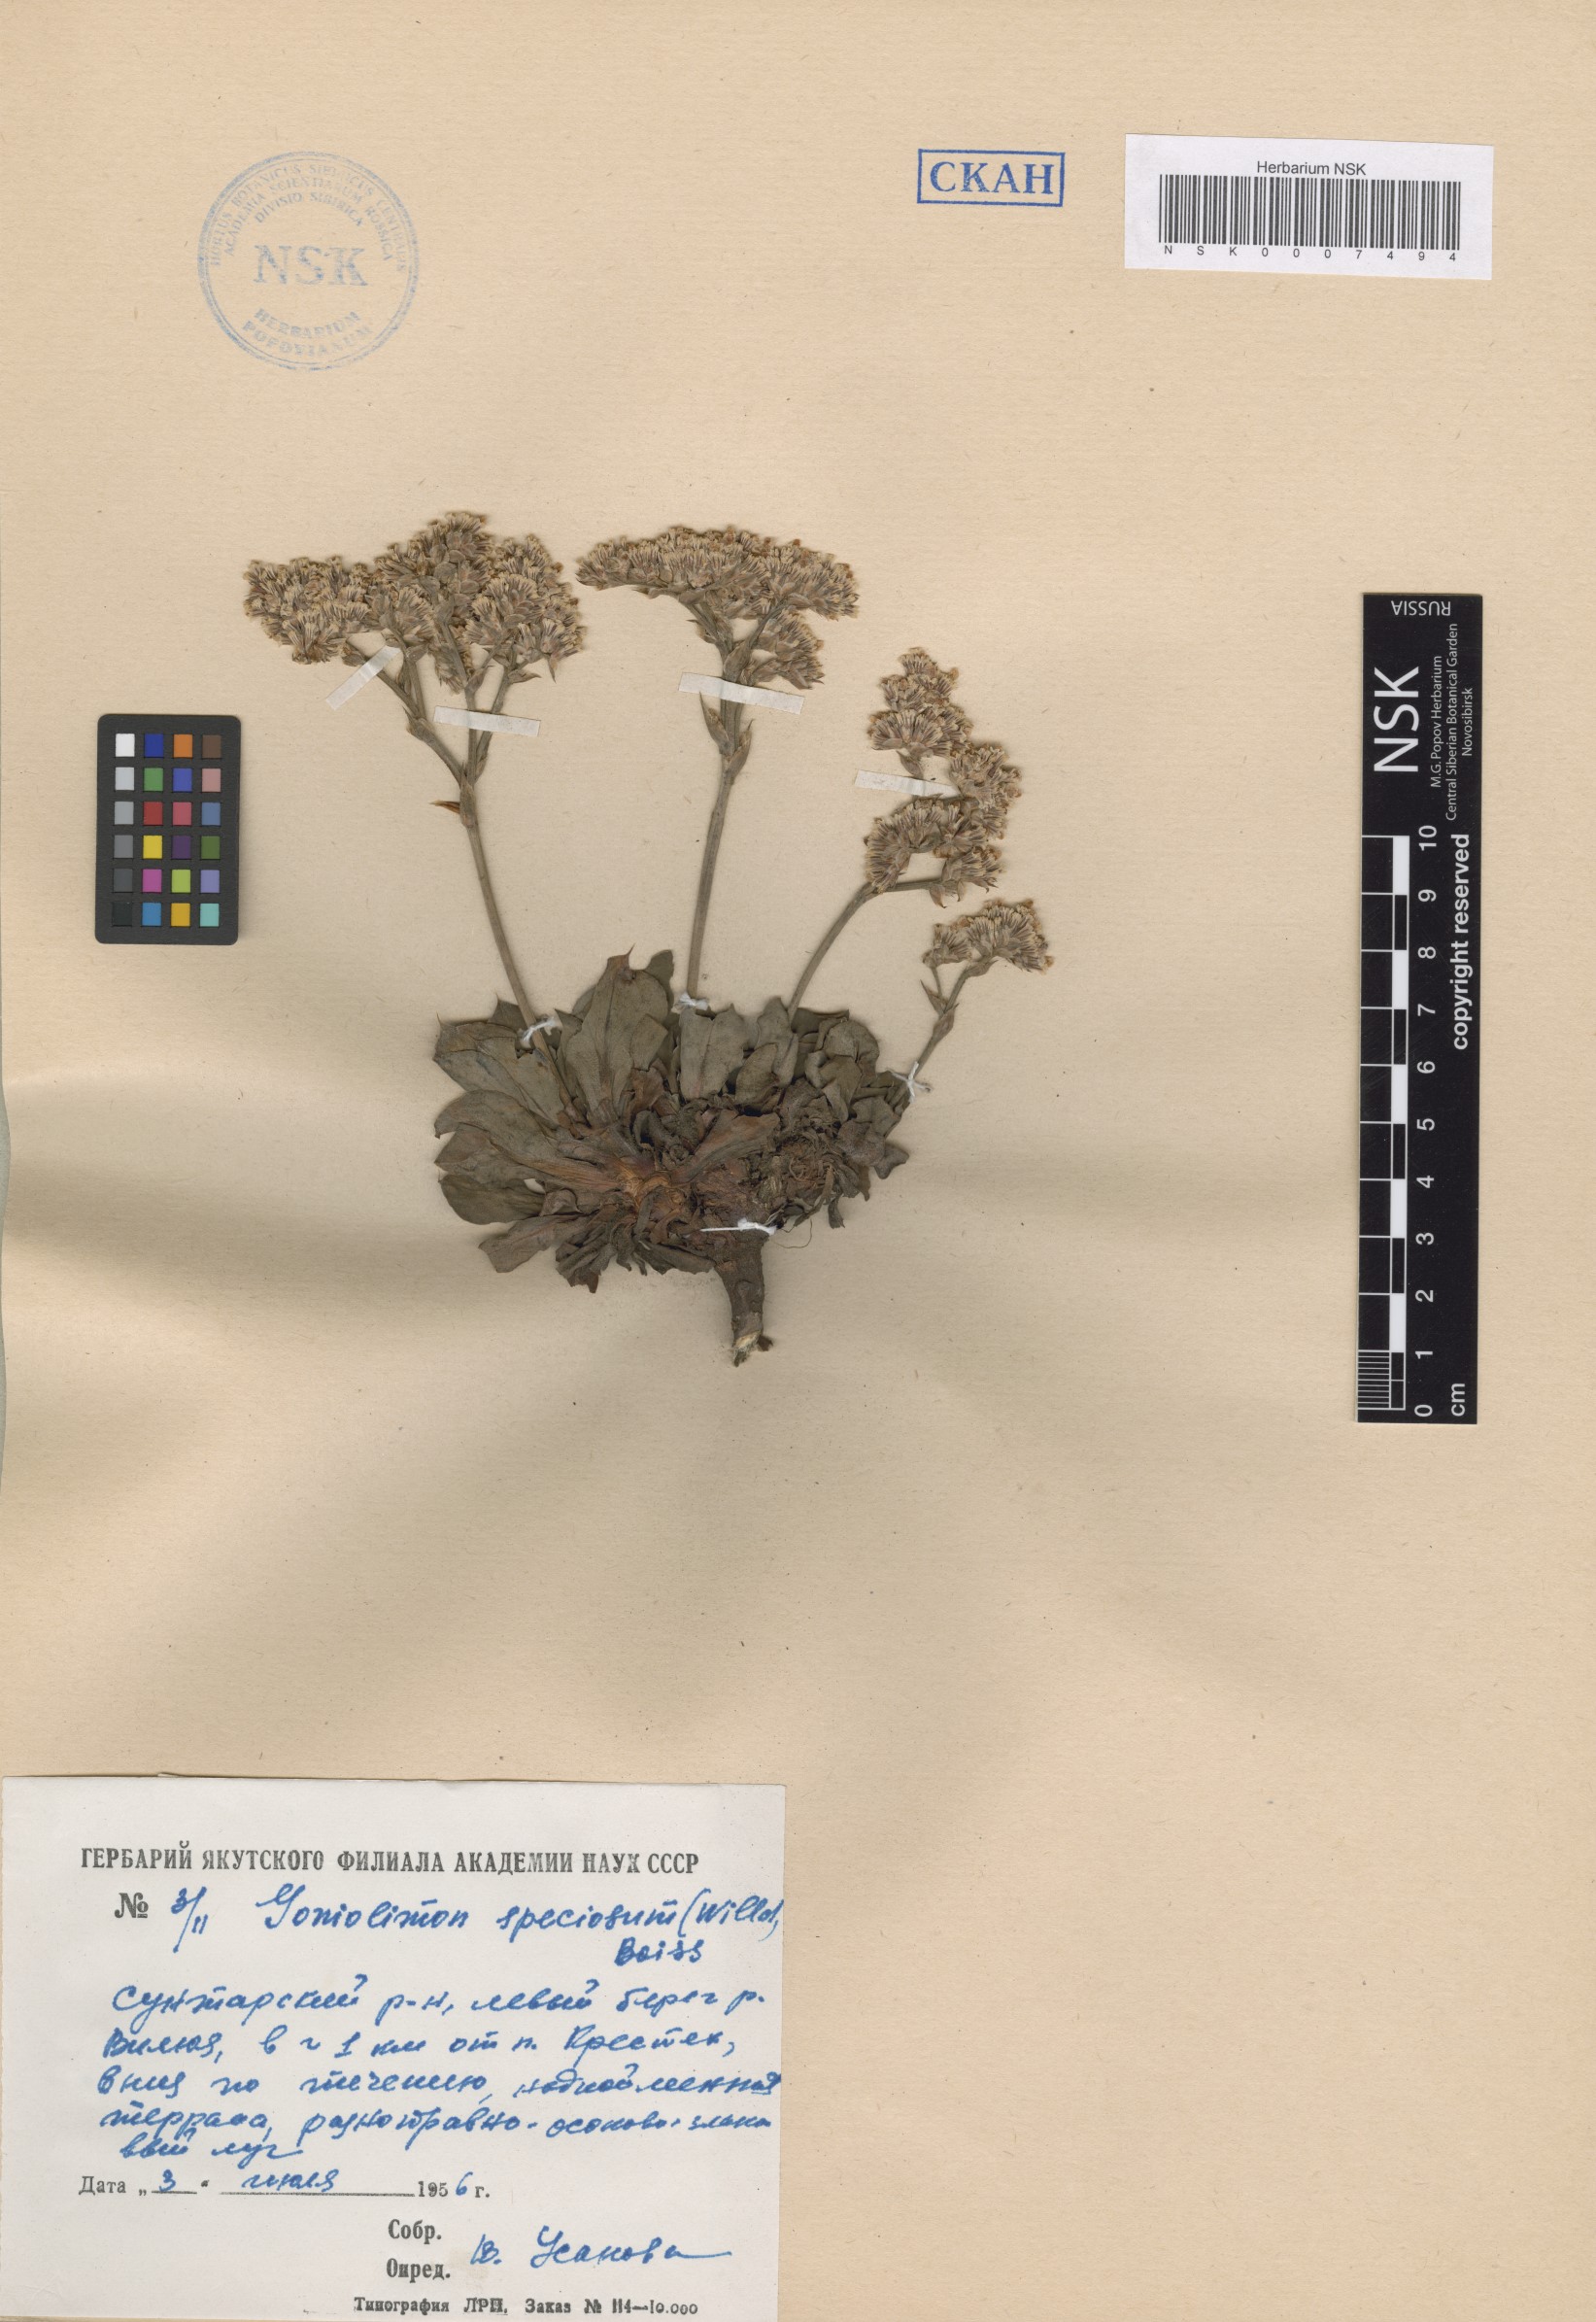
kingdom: Plantae
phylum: Tracheophyta
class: Magnoliopsida
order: Caryophyllales
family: Plumbaginaceae
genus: Goniolimon
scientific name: Goniolimon speciosum
